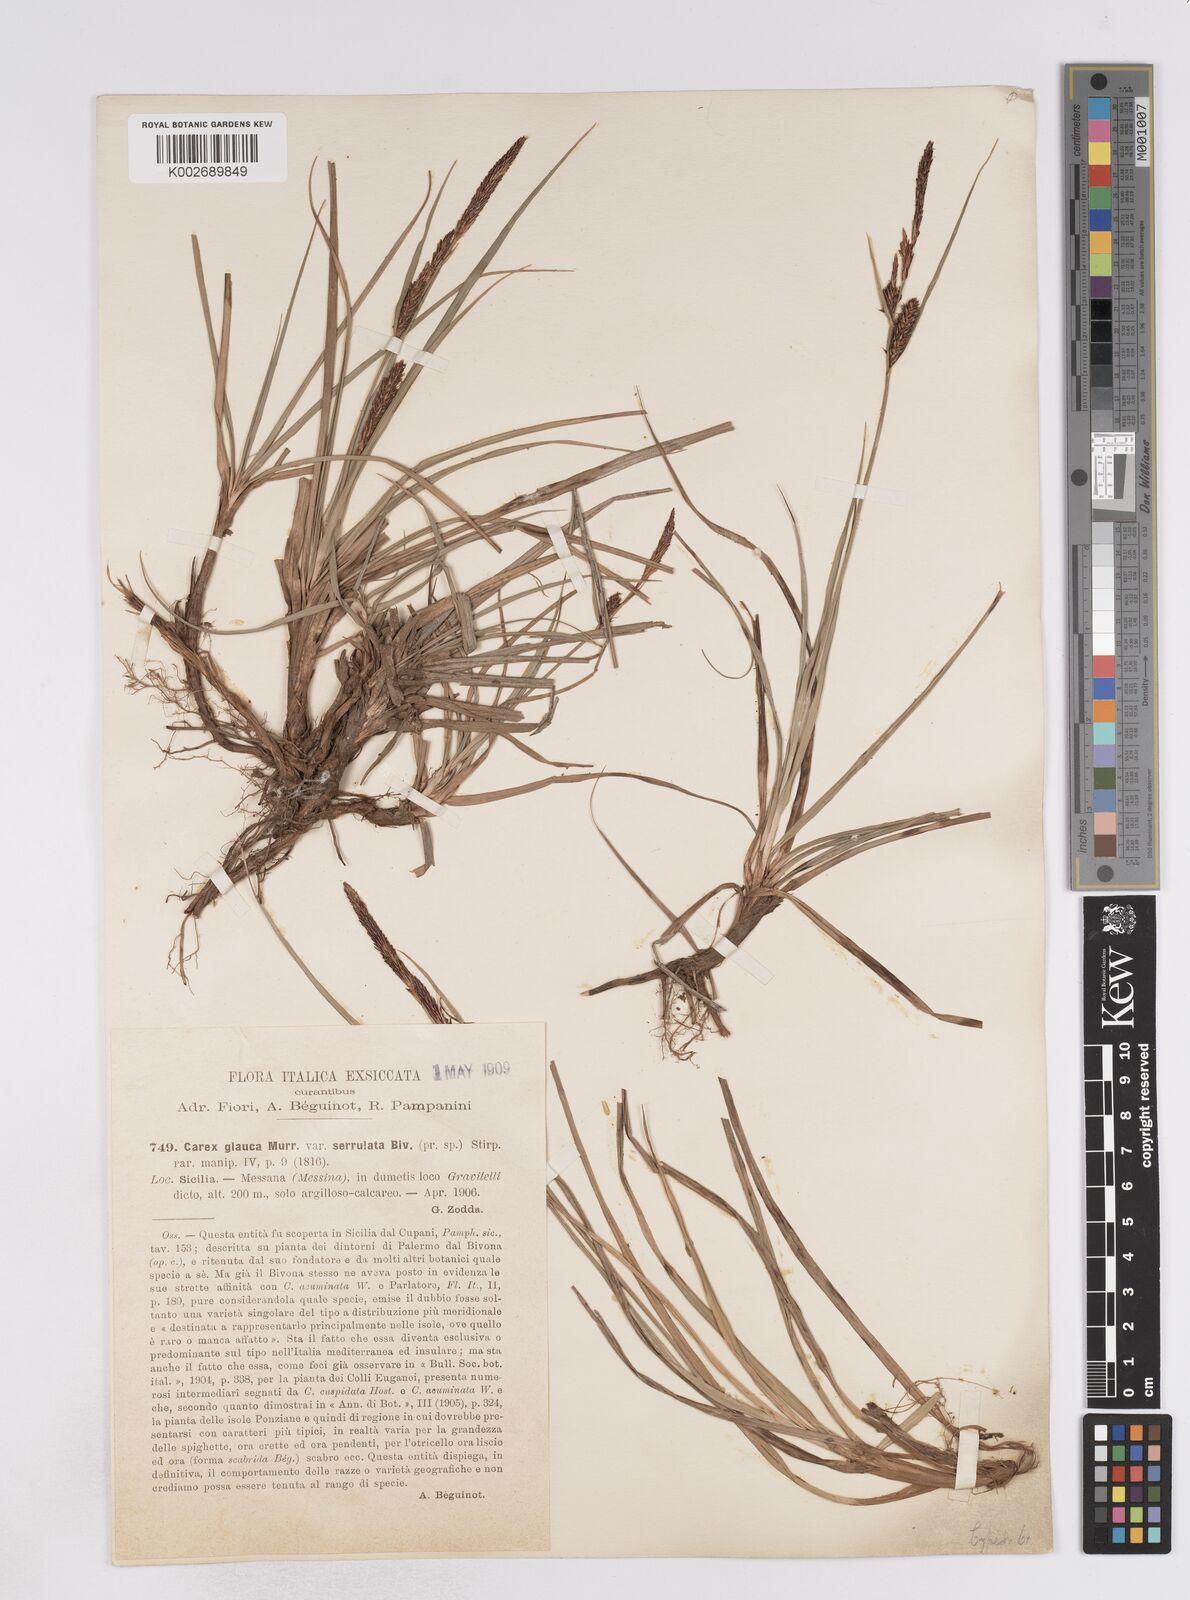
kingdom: Plantae
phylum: Tracheophyta
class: Liliopsida
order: Poales
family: Cyperaceae
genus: Carex
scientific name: Carex flacca
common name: Glaucous sedge
